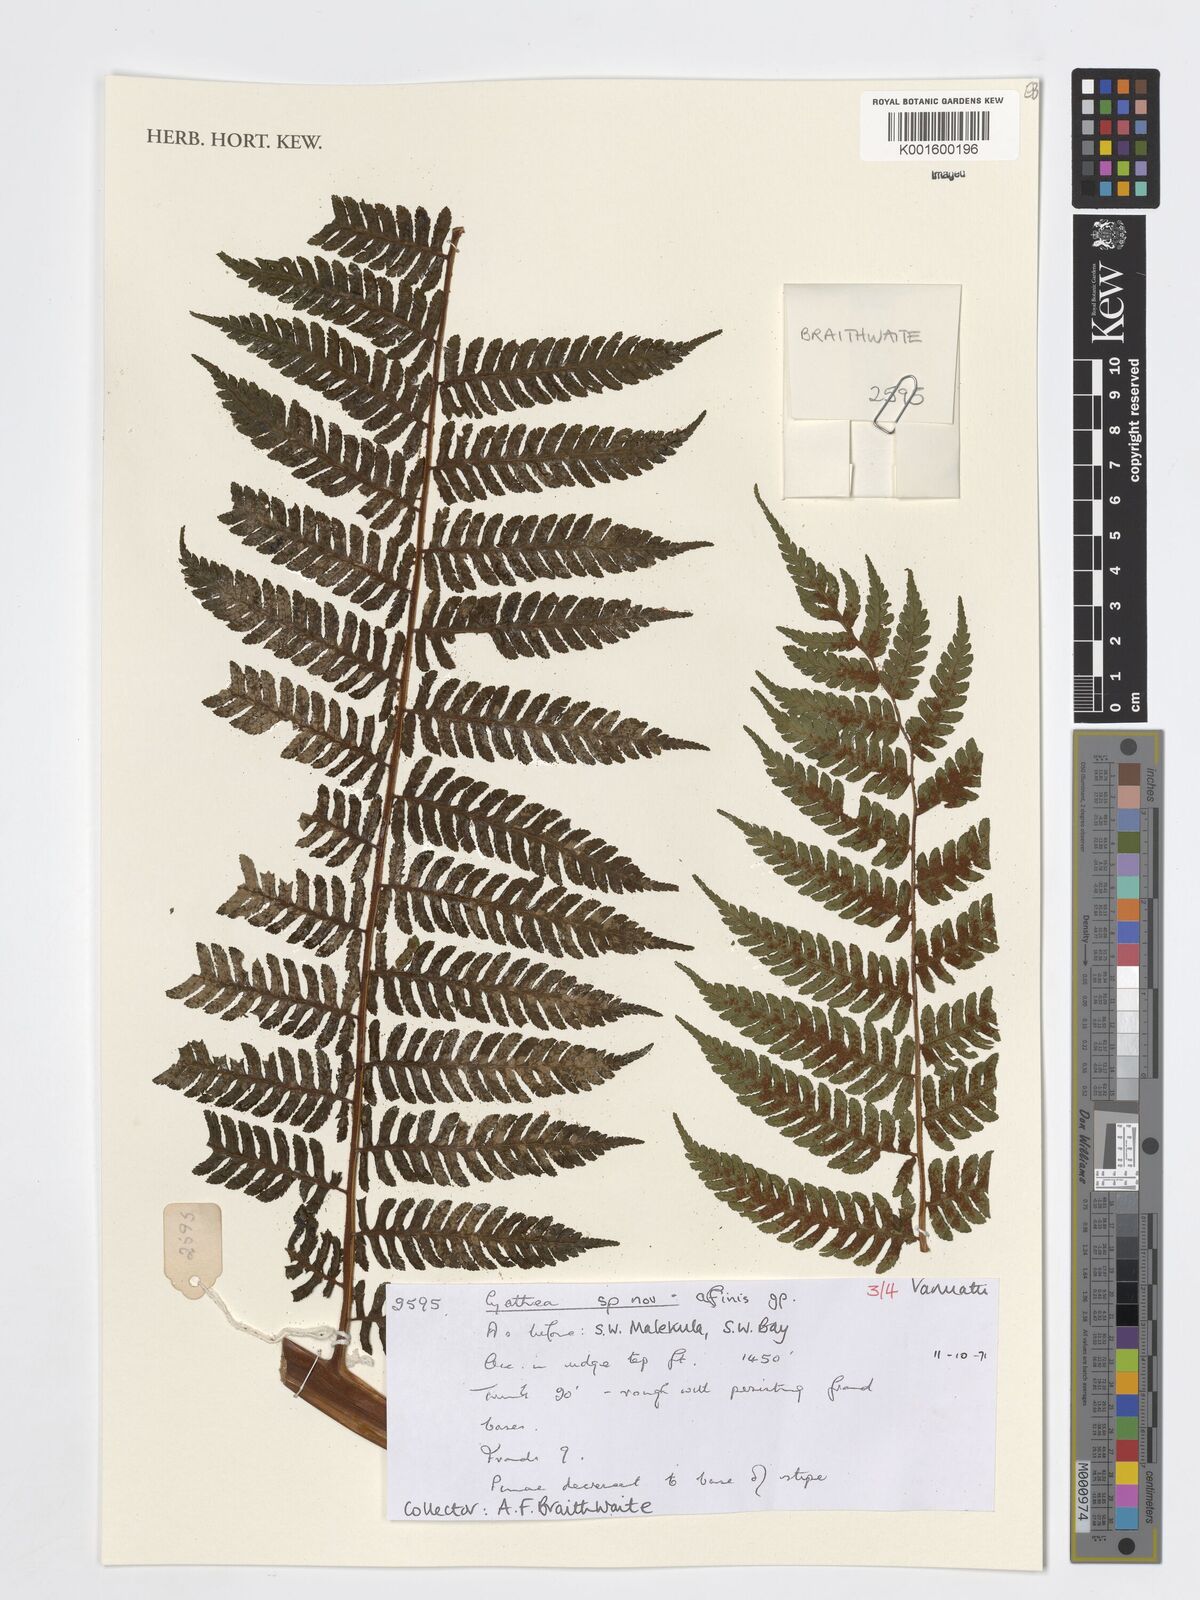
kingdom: Plantae
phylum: Tracheophyta
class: Polypodiopsida
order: Cyatheales
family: Cyatheaceae
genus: Cyathea
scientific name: Cyathea
